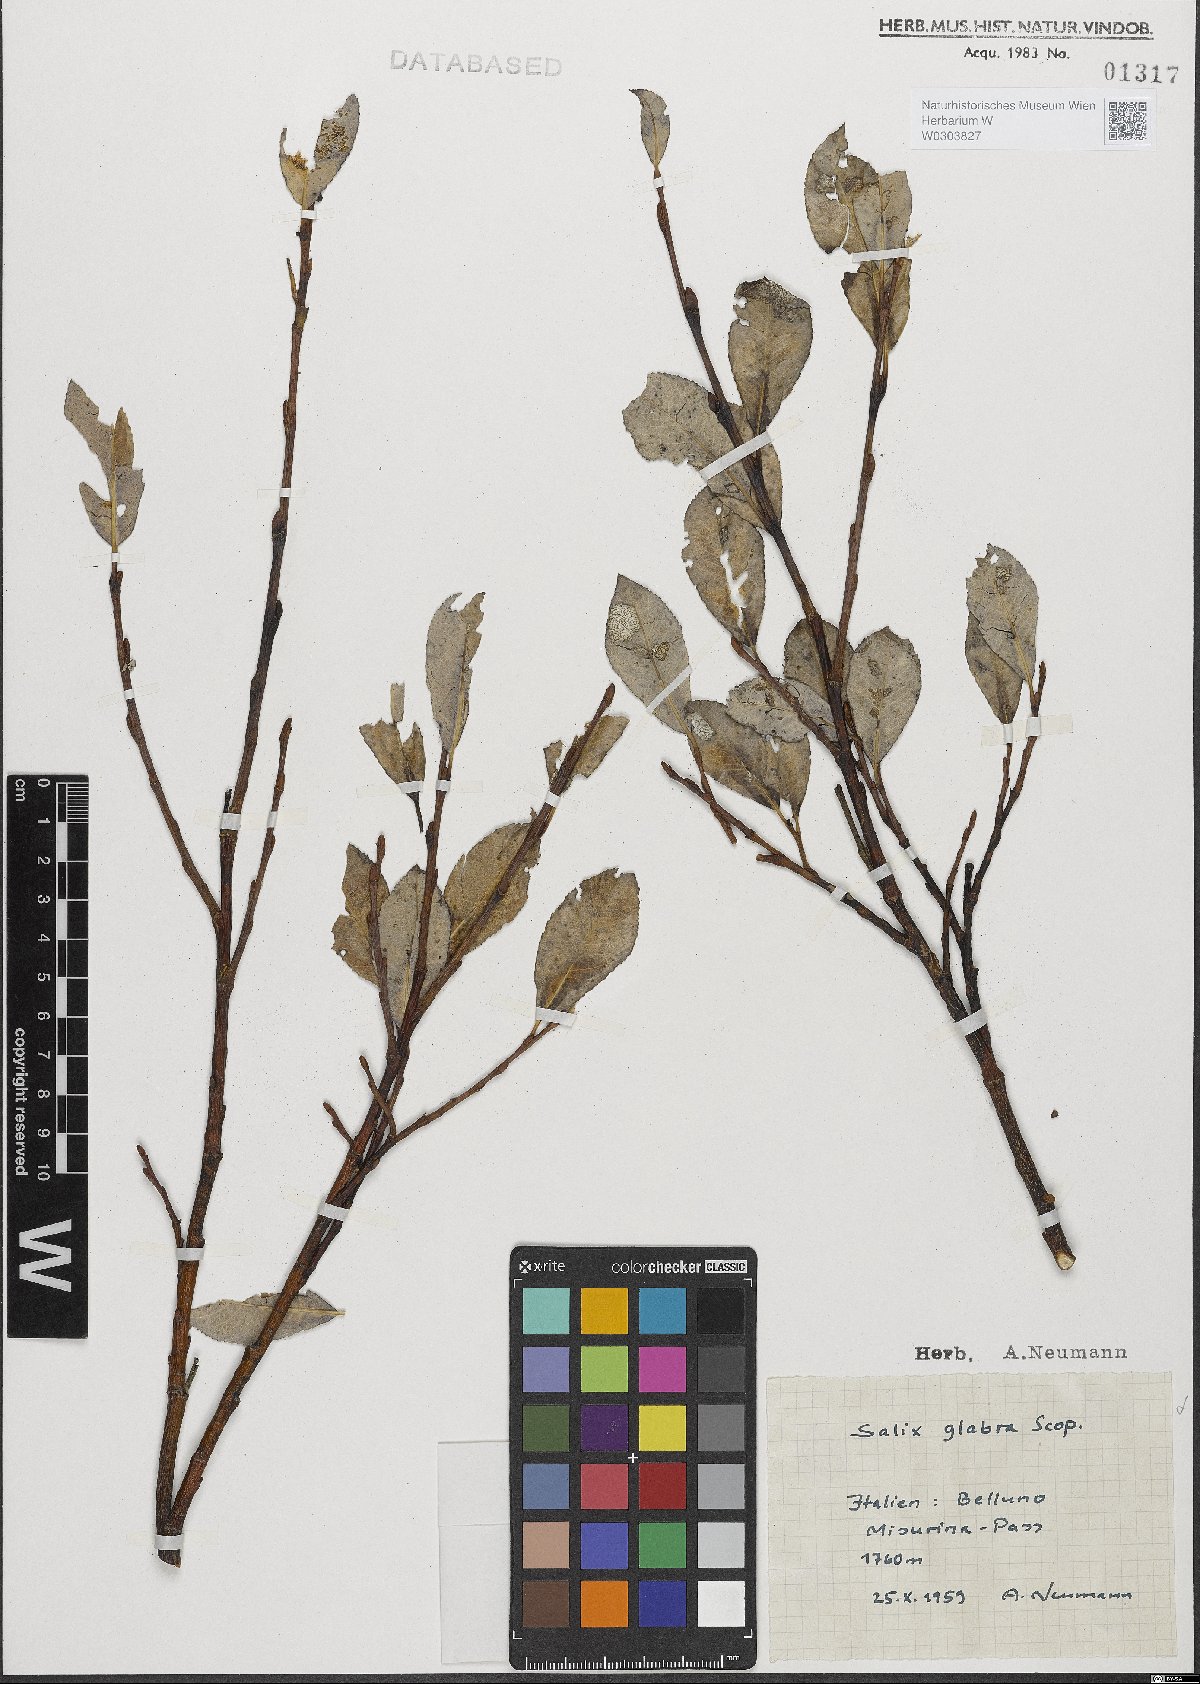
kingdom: Plantae
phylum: Tracheophyta
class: Magnoliopsida
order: Malpighiales
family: Salicaceae
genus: Salix
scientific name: Salix glabra
